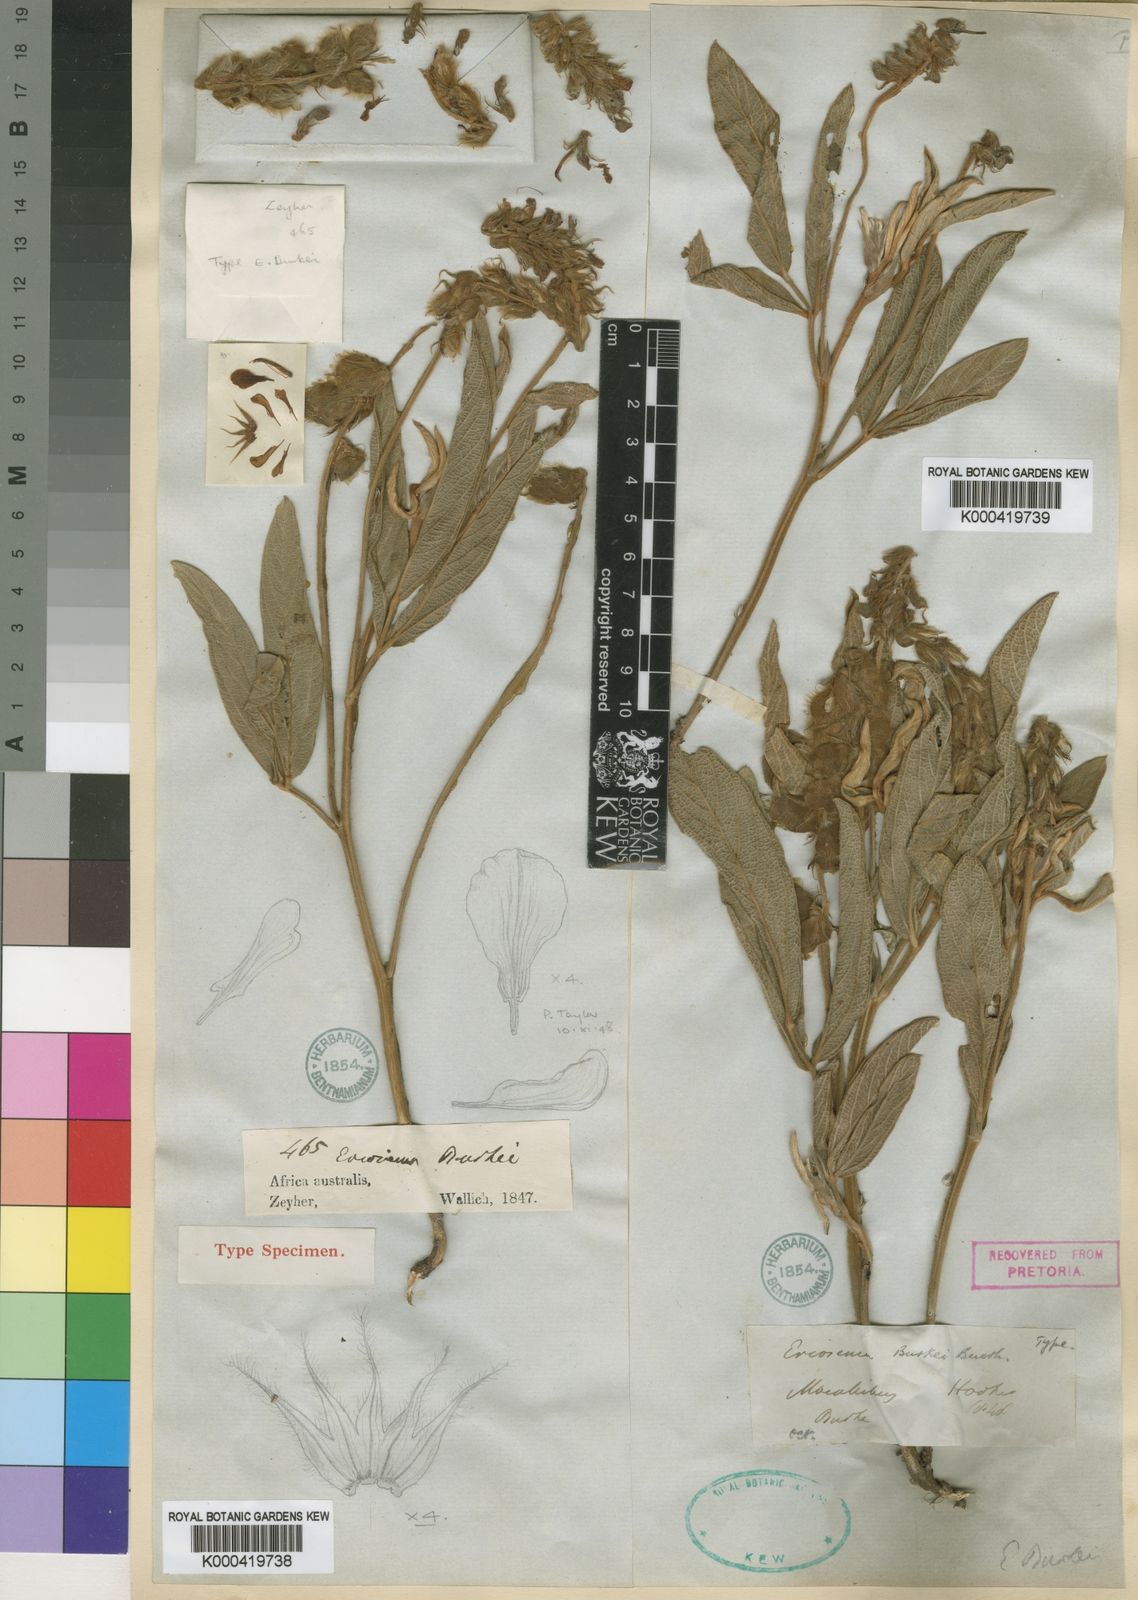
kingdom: Plantae
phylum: Tracheophyta
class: Magnoliopsida
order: Fabales
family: Fabaceae
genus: Eriosema
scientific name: Eriosema
